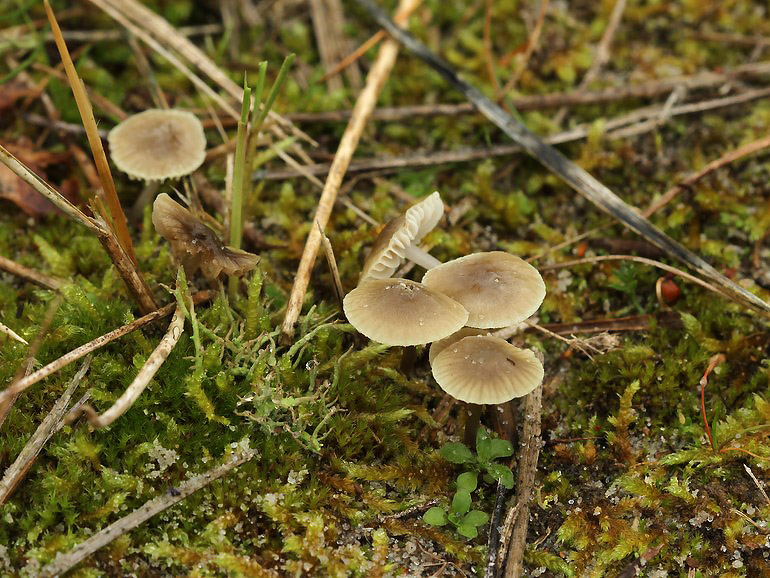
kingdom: Fungi
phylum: Basidiomycota
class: Agaricomycetes
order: Agaricales
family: Mycenaceae
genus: Mycena
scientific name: Mycena chlorantha
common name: klit-huesvamp
